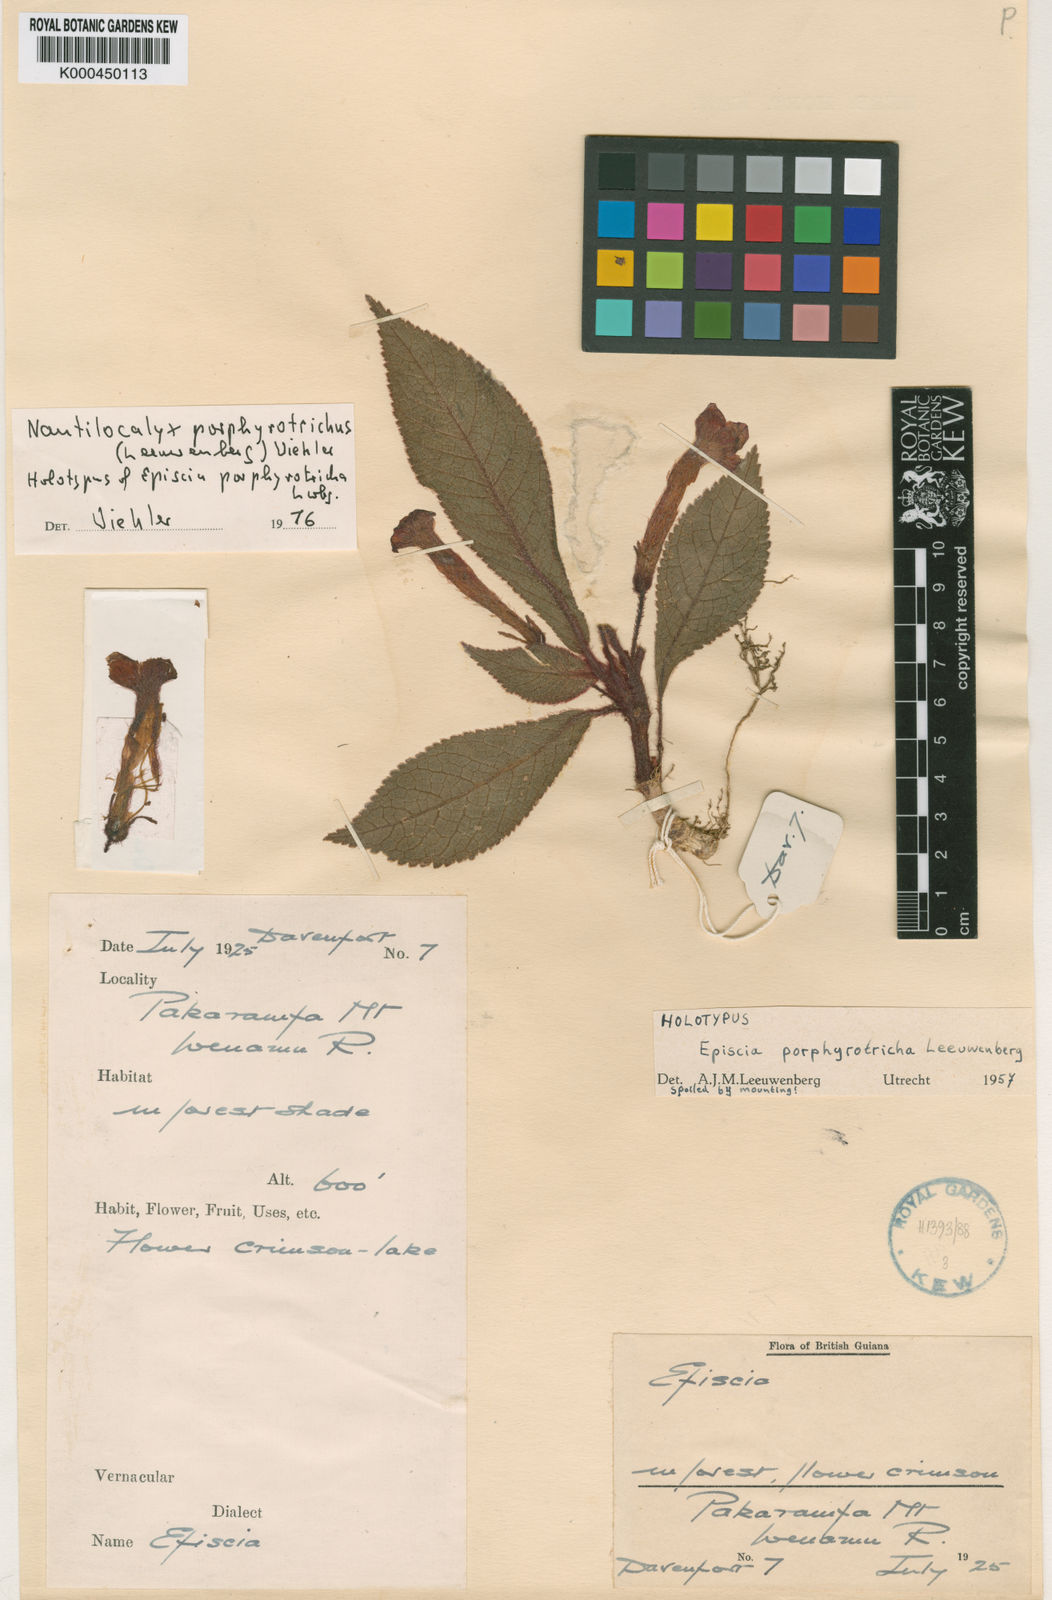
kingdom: Plantae
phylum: Tracheophyta
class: Magnoliopsida
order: Lamiales
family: Gesneriaceae
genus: Centrosolenia
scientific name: Centrosolenia porphyrotricha
